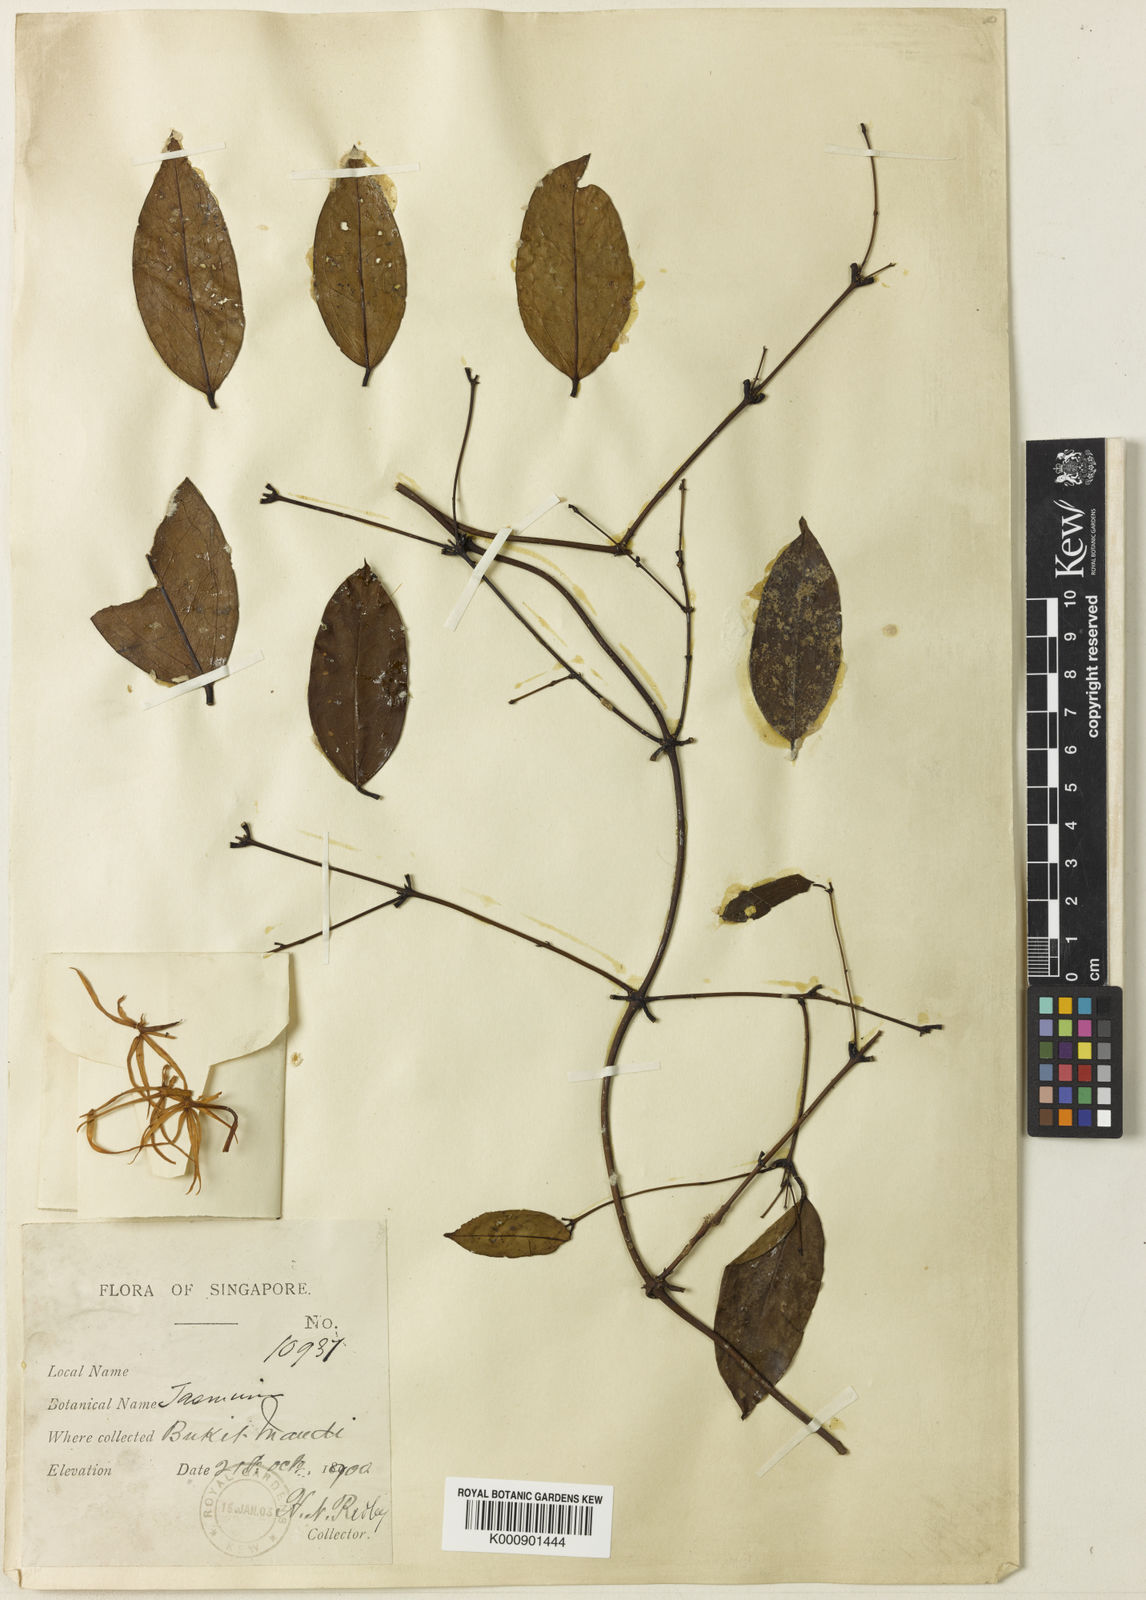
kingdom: Plantae
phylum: Tracheophyta
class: Magnoliopsida
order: Lamiales
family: Oleaceae
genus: Jasminum
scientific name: Jasminum longipetalum
